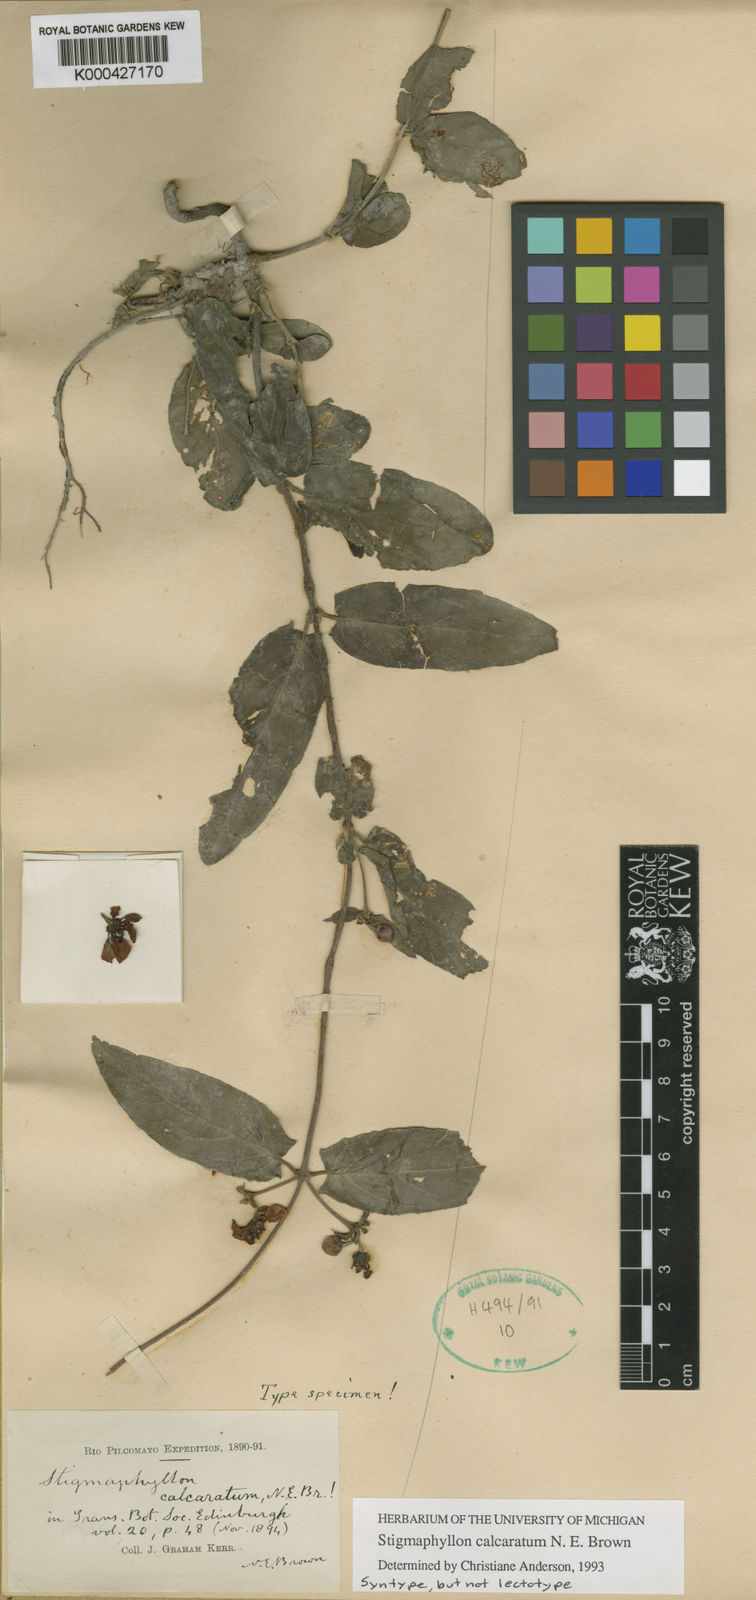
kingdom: Plantae
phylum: Tracheophyta
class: Magnoliopsida
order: Malpighiales
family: Malpighiaceae
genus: Stigmaphyllon
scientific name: Stigmaphyllon calcaratum
